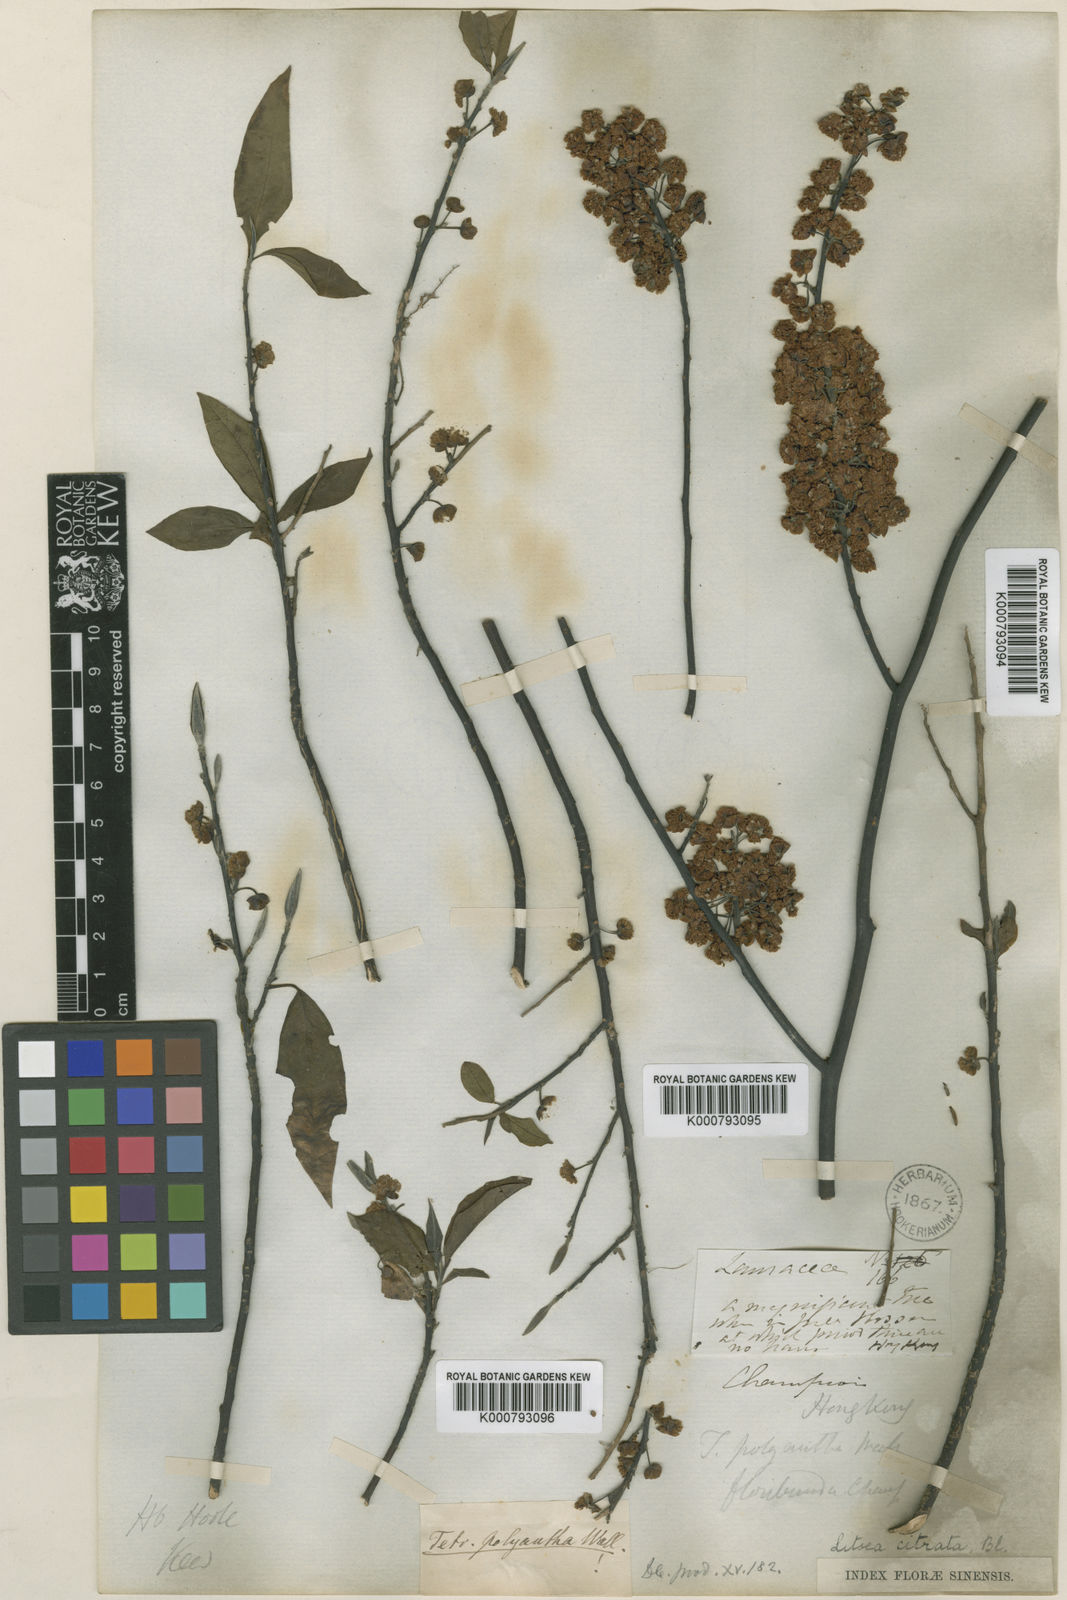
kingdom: Plantae
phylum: Tracheophyta
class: Magnoliopsida
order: Laurales
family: Lauraceae
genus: Litsea
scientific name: Litsea cubeba
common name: Mountain-pepper
